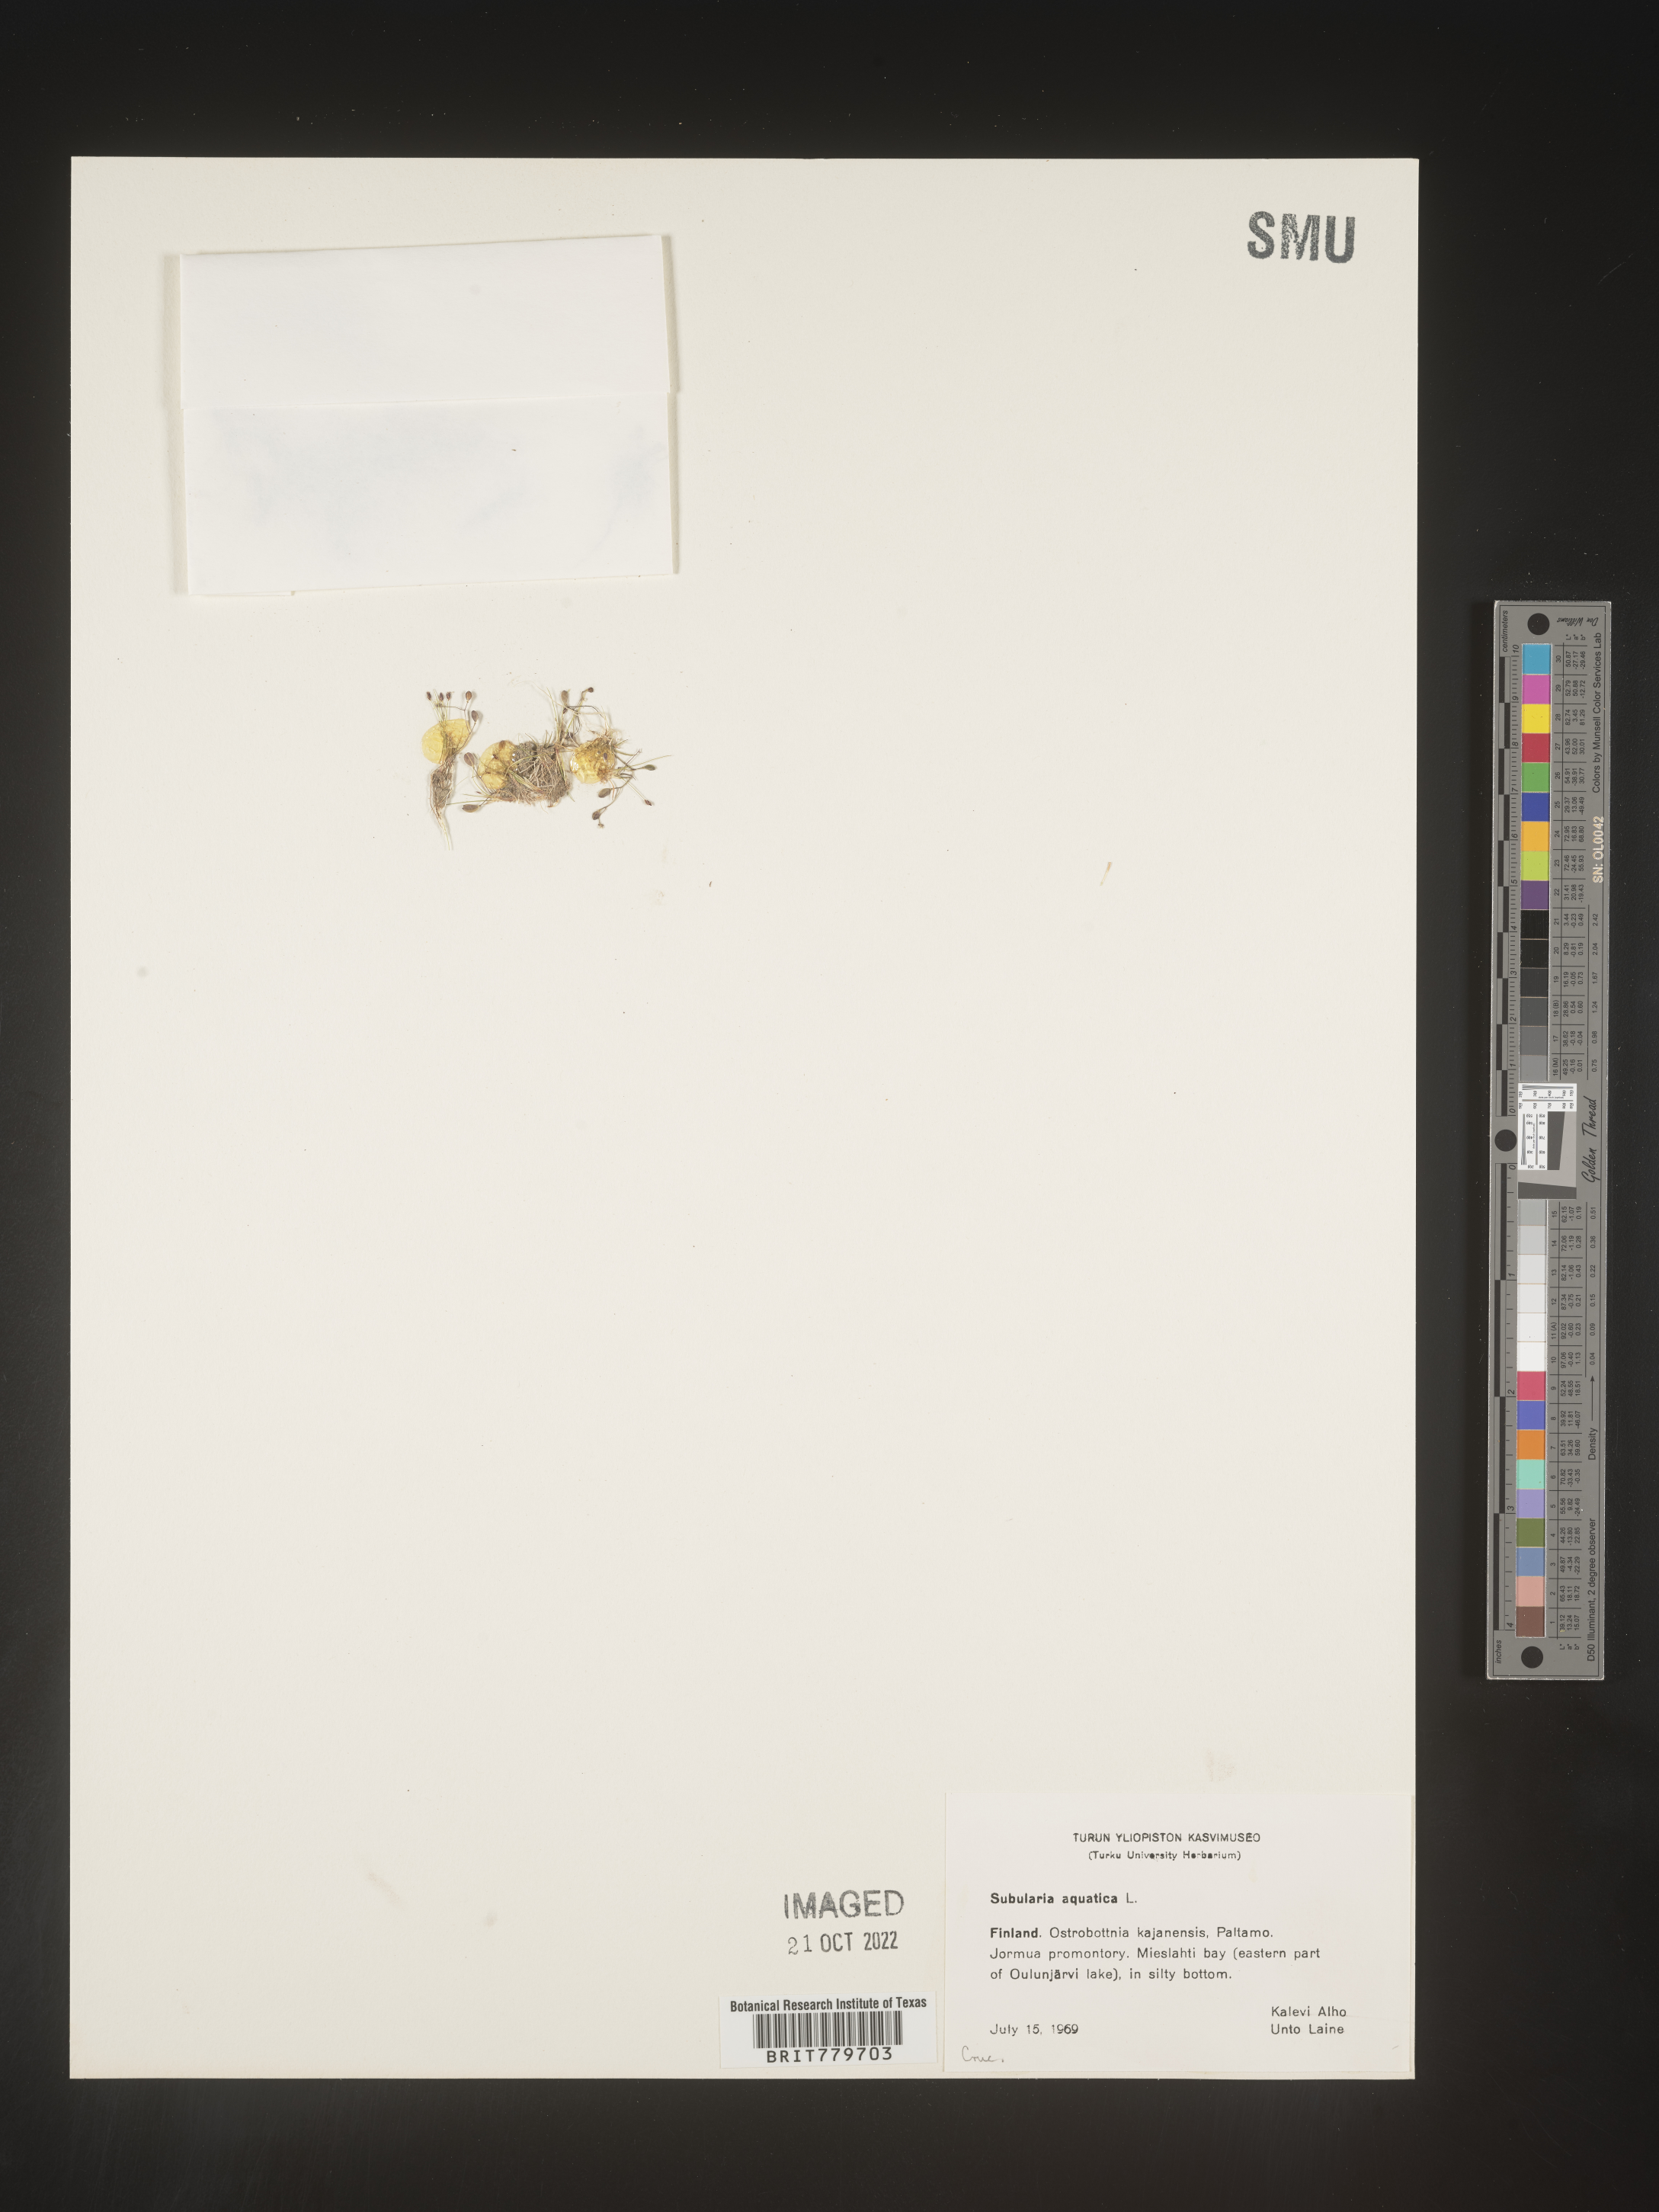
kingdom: Plantae
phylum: Tracheophyta
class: Magnoliopsida
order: Brassicales
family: Brassicaceae
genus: Subularia
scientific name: Subularia
